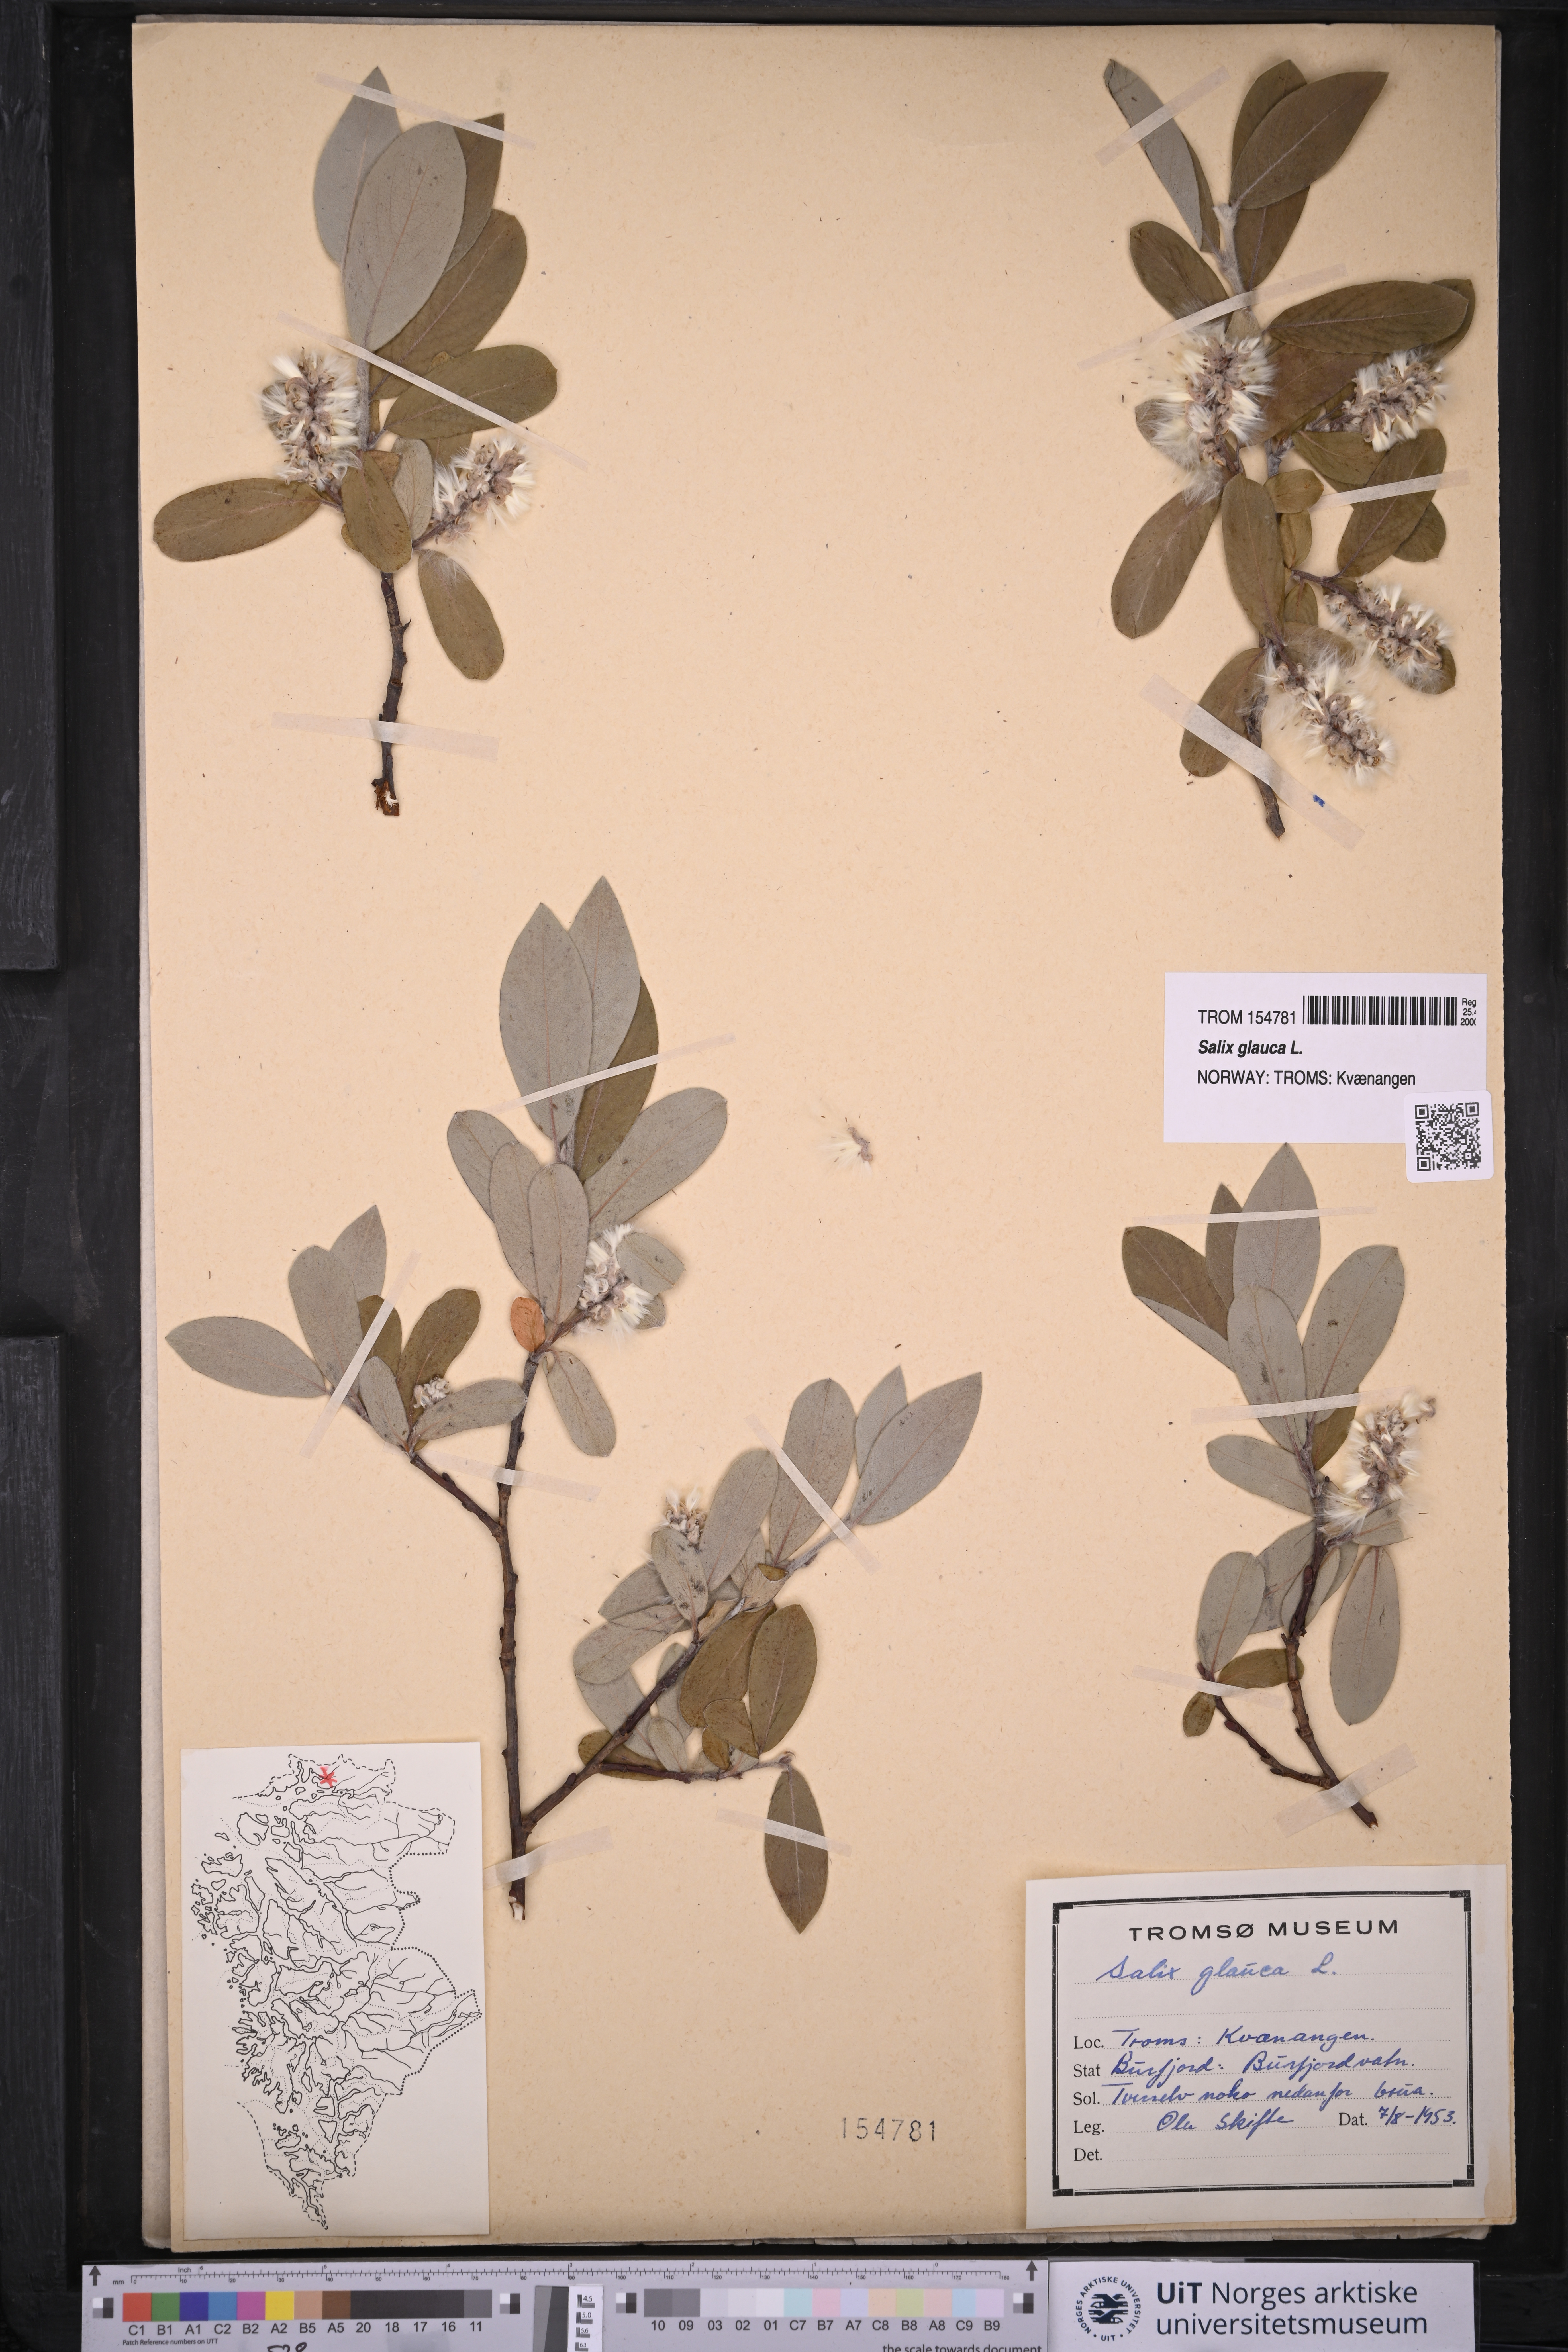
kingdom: Plantae
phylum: Tracheophyta
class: Magnoliopsida
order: Malpighiales
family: Salicaceae
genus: Salix
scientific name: Salix glauca
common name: Glaucous willow
